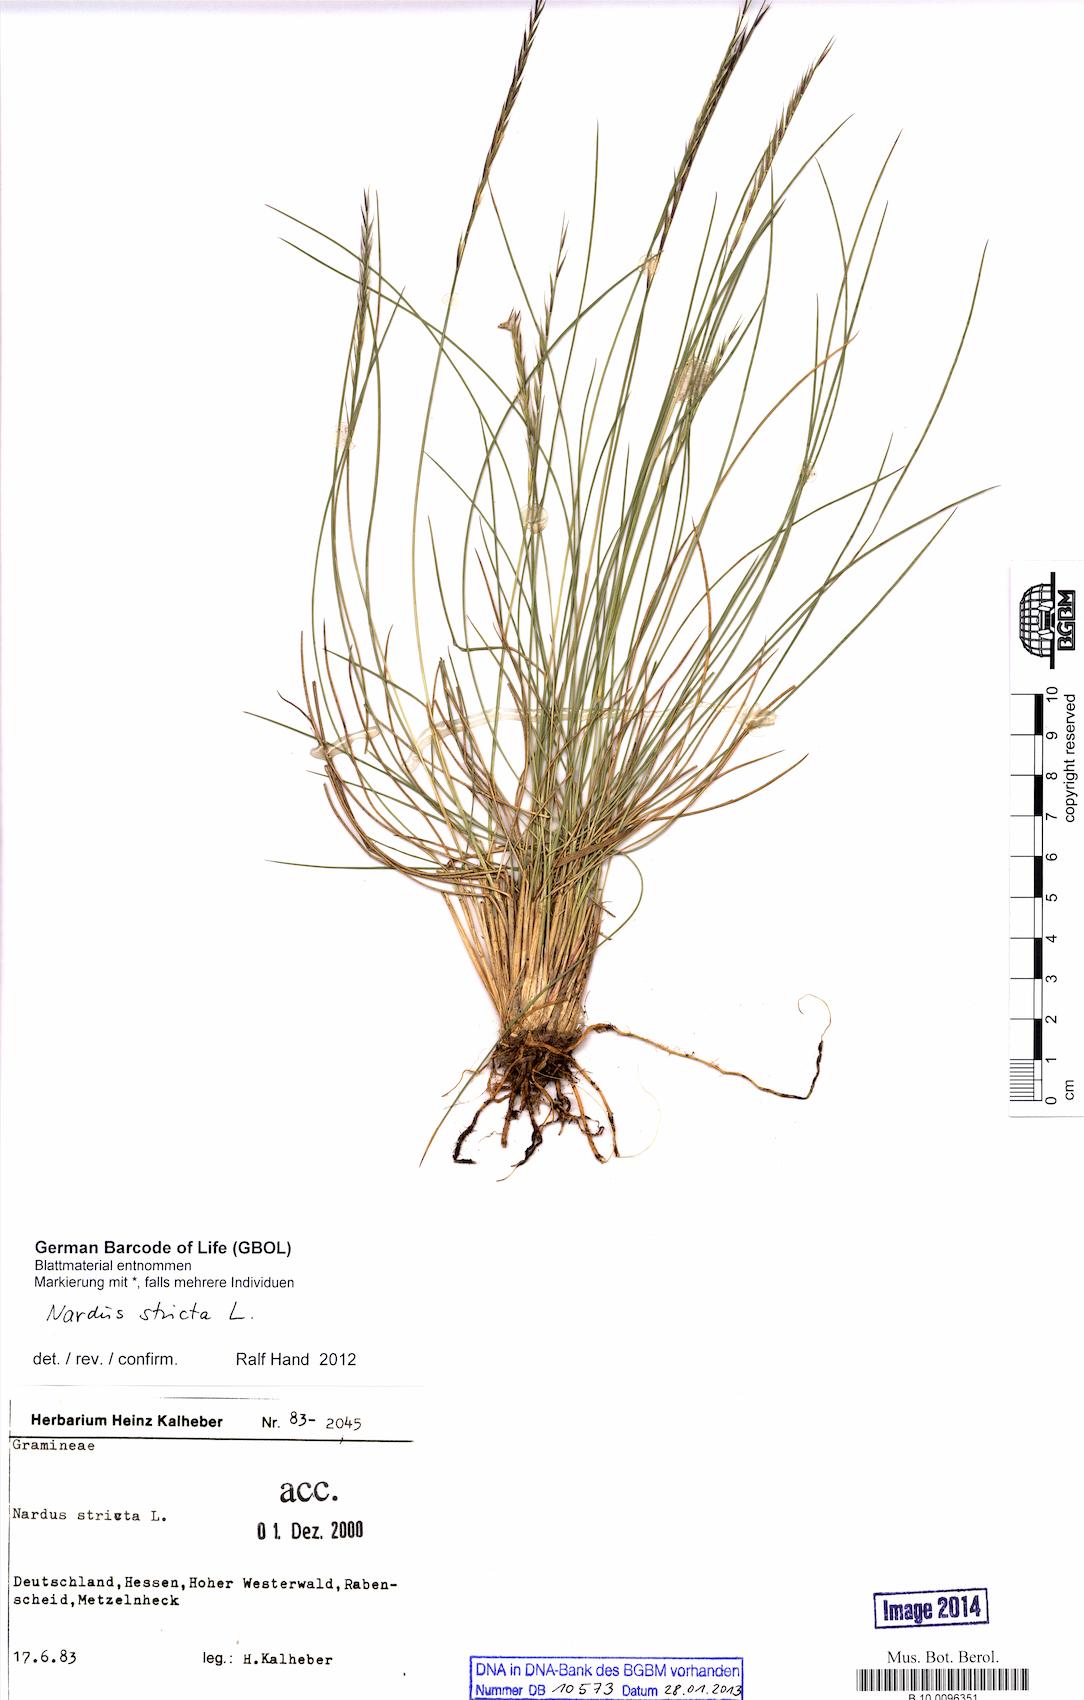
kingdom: Plantae
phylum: Tracheophyta
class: Liliopsida
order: Poales
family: Poaceae
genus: Nardus
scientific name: Nardus stricta
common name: Mat-grass
